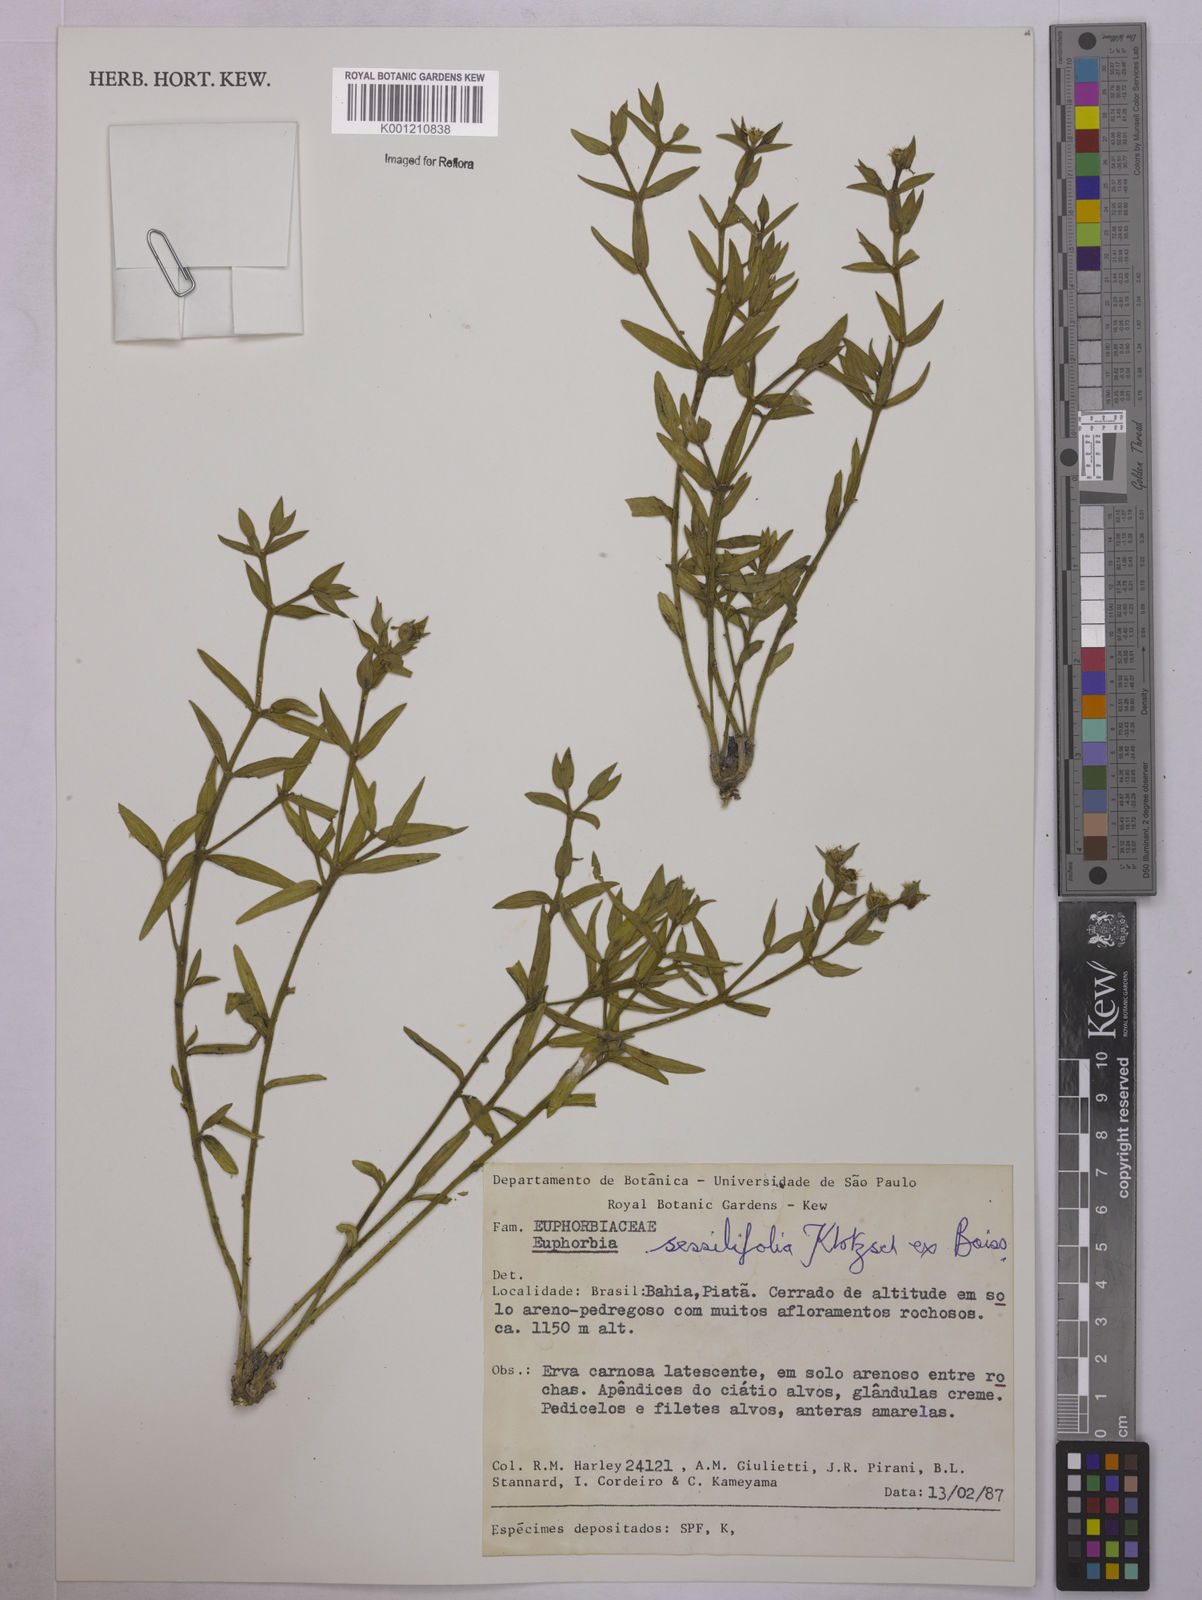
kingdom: Plantae
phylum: Tracheophyta
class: Magnoliopsida
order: Malpighiales
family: Euphorbiaceae
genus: Euphorbia
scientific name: Euphorbia sessilifolia
